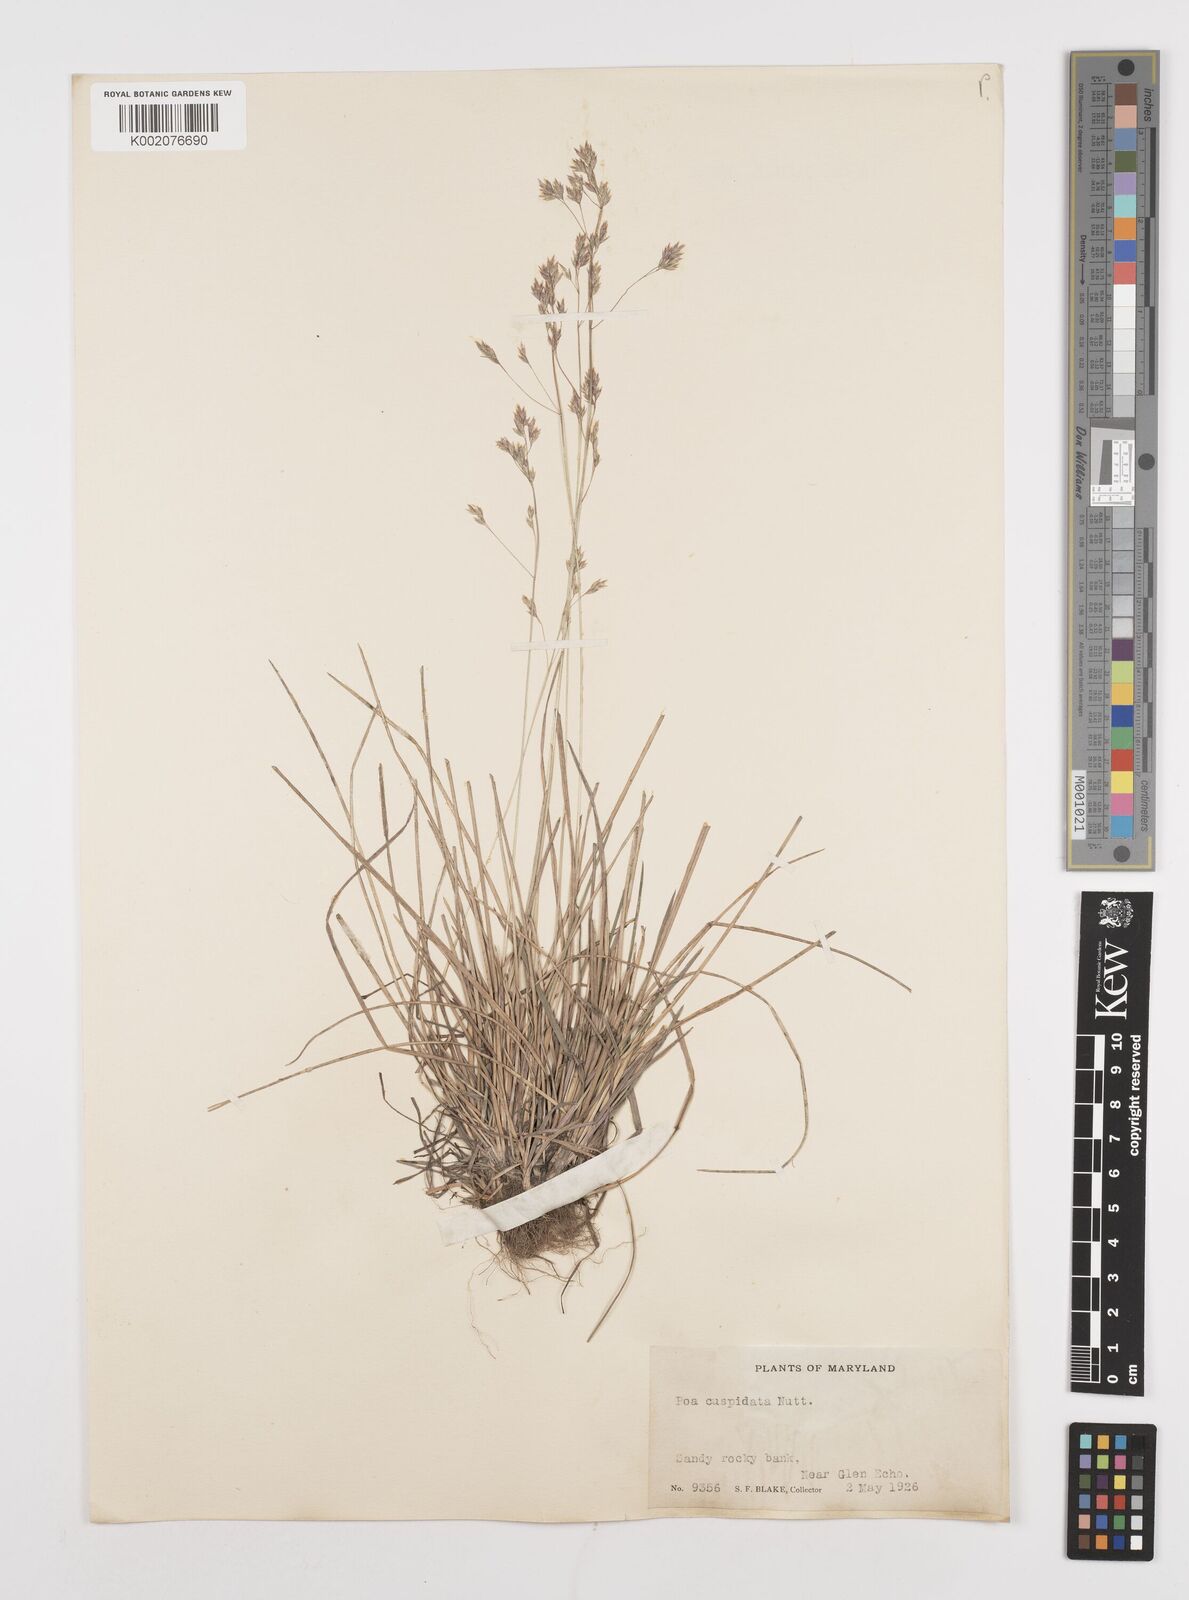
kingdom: Plantae
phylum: Tracheophyta
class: Liliopsida
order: Poales
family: Poaceae
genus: Poa
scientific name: Poa cuspidata
